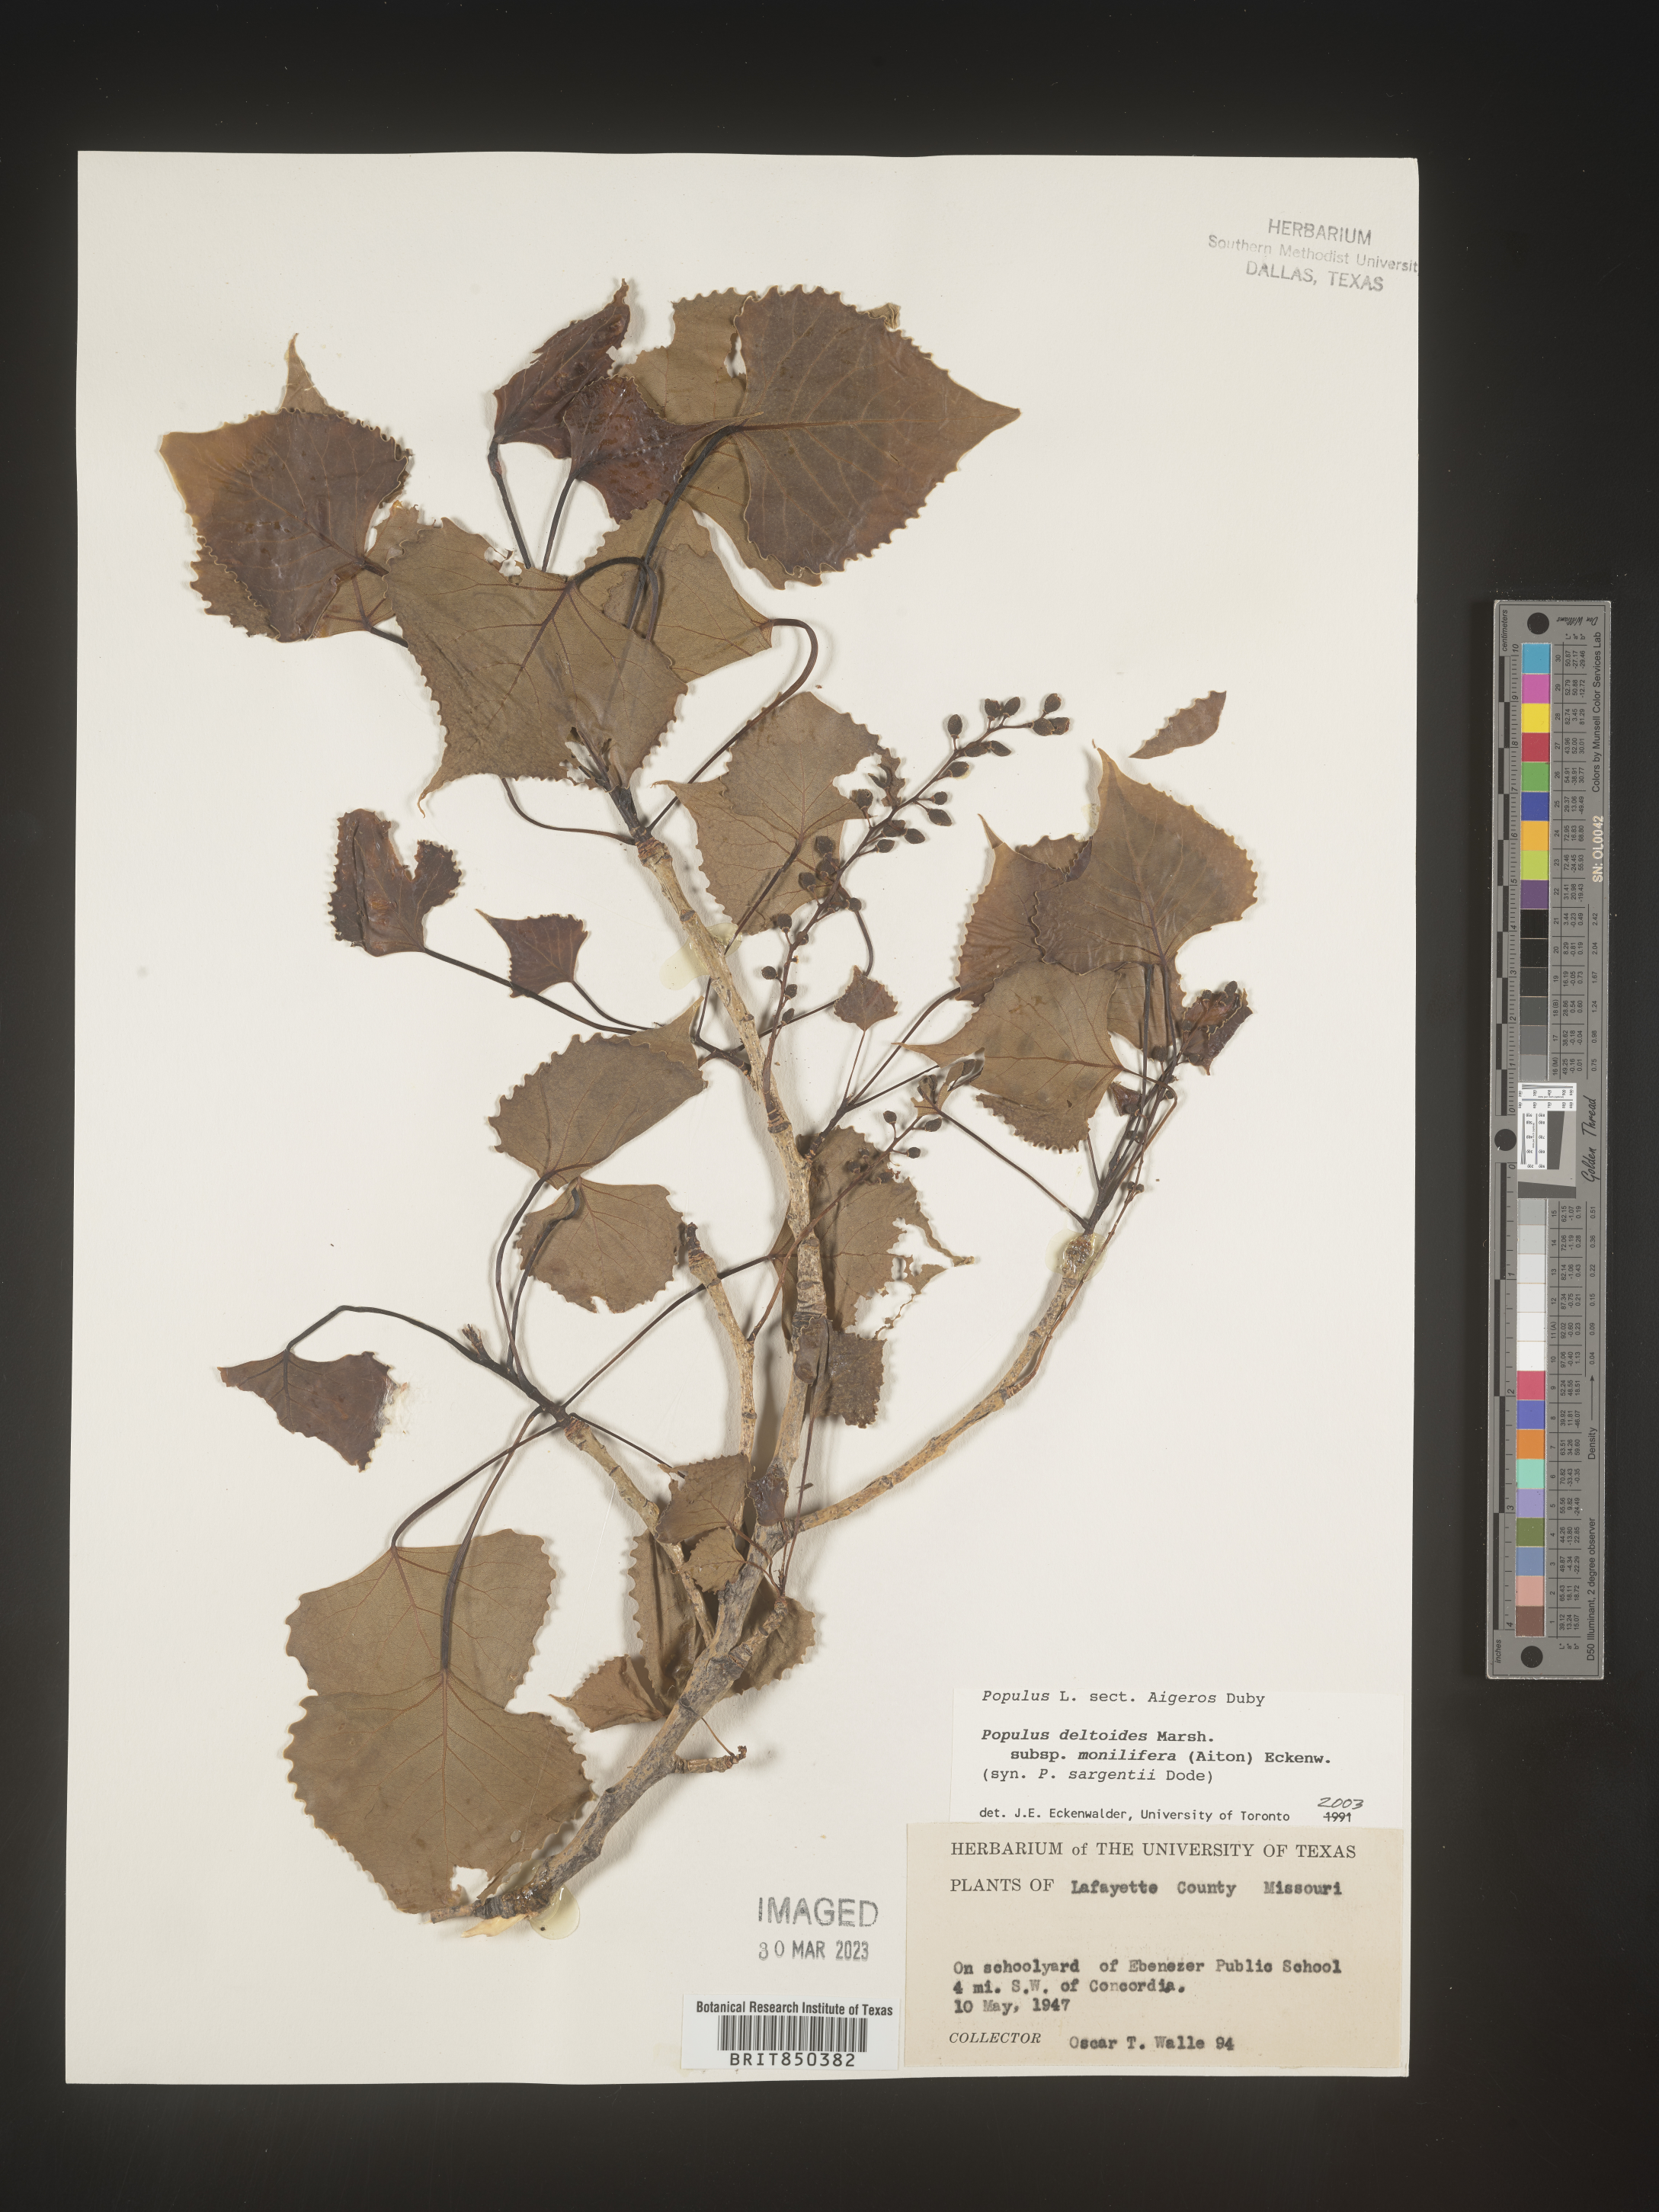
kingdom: Plantae
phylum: Tracheophyta
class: Magnoliopsida
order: Malpighiales
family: Salicaceae
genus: Populus
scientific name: Populus deltoides
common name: Eastern cottonwood
